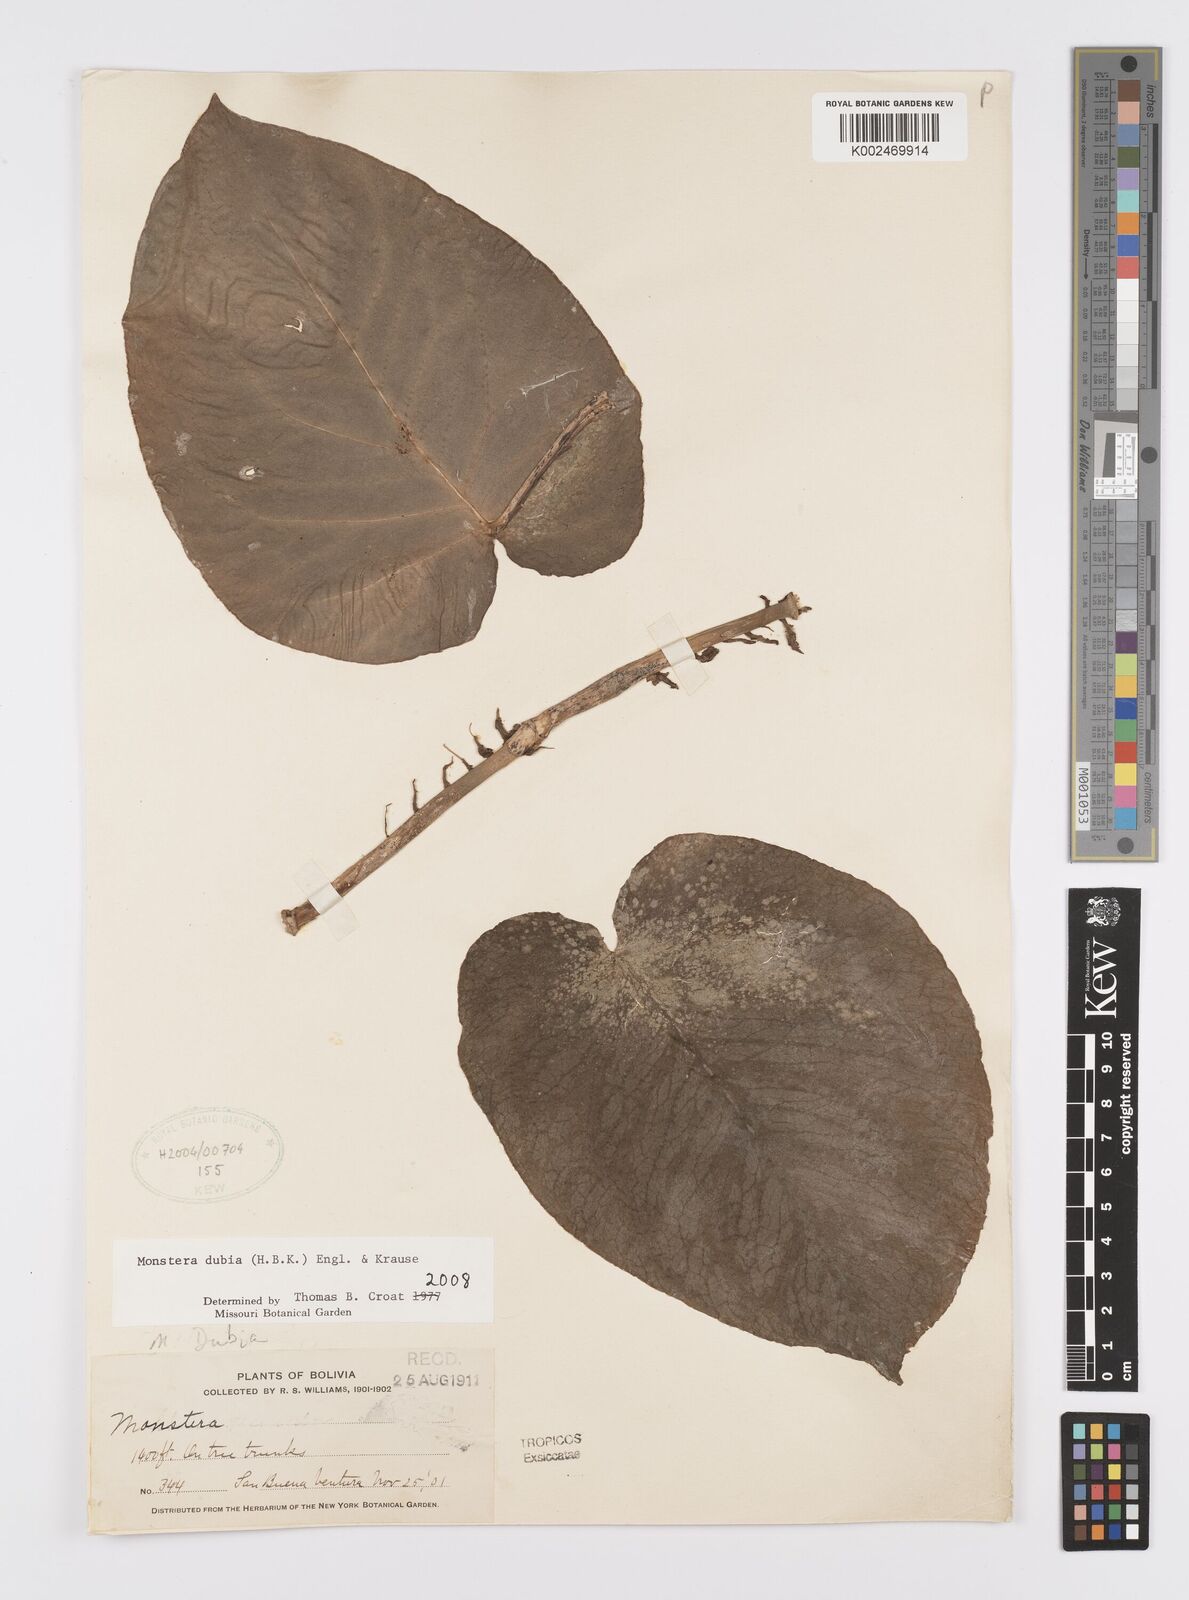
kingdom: Plantae
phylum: Tracheophyta
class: Liliopsida
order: Alismatales
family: Araceae
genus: Monstera
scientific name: Monstera dubia
